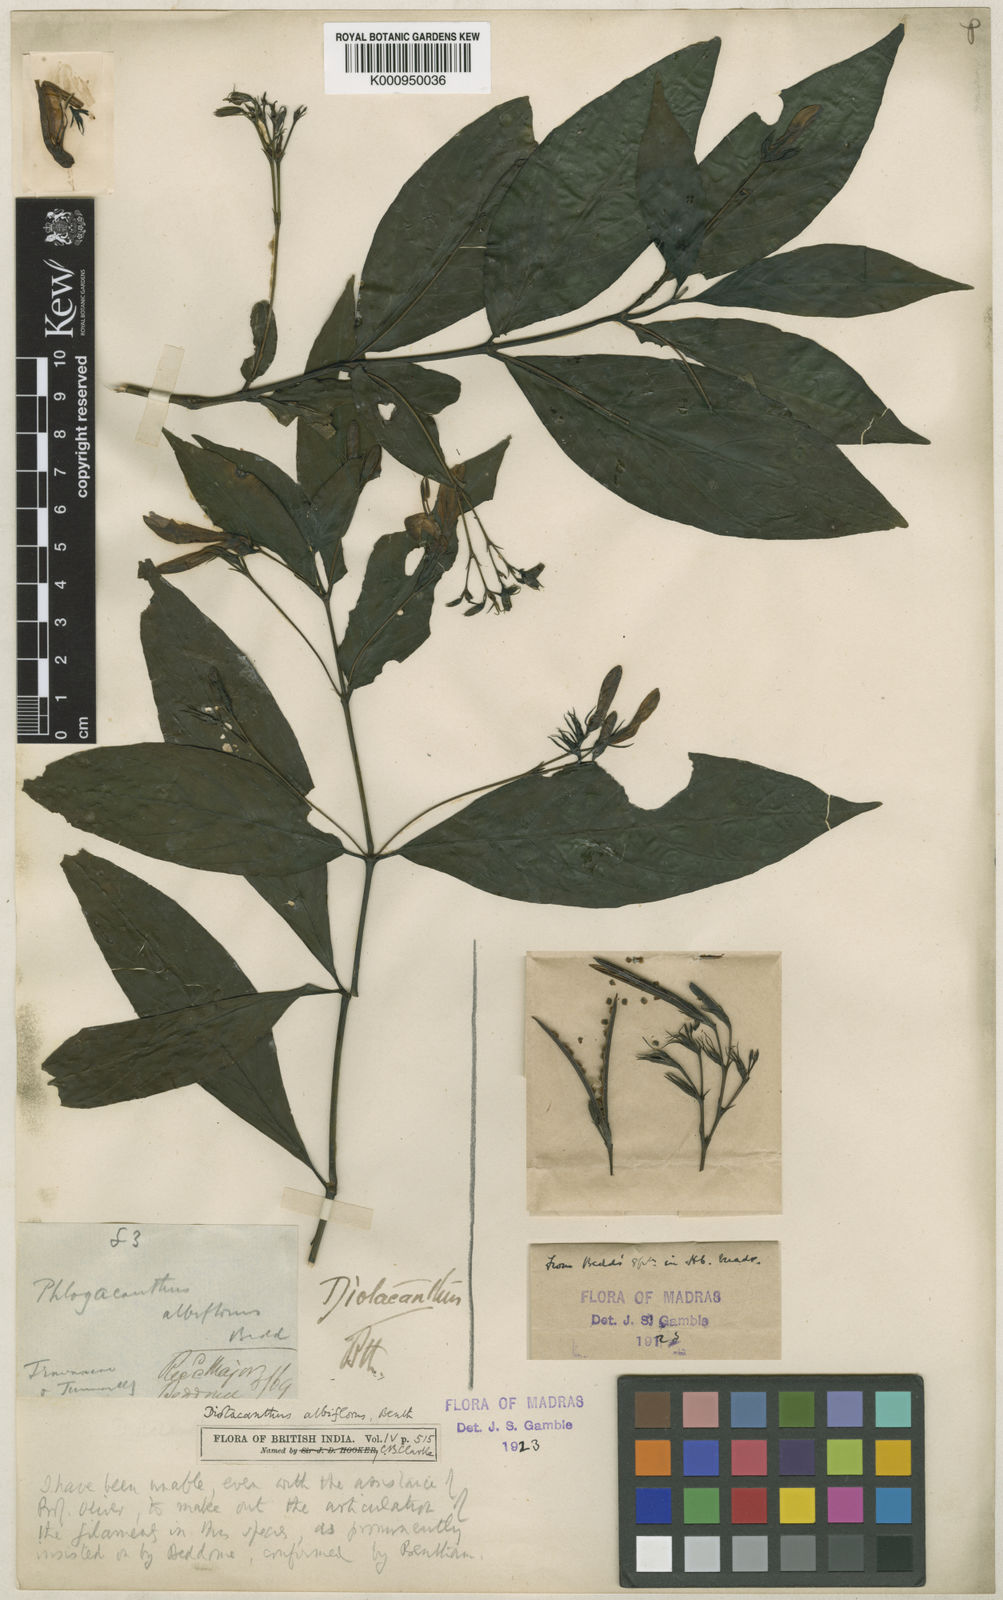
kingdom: Plantae
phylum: Tracheophyta
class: Magnoliopsida
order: Lamiales
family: Acanthaceae
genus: Phlogacanthus
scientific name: Phlogacanthus albiflorus
